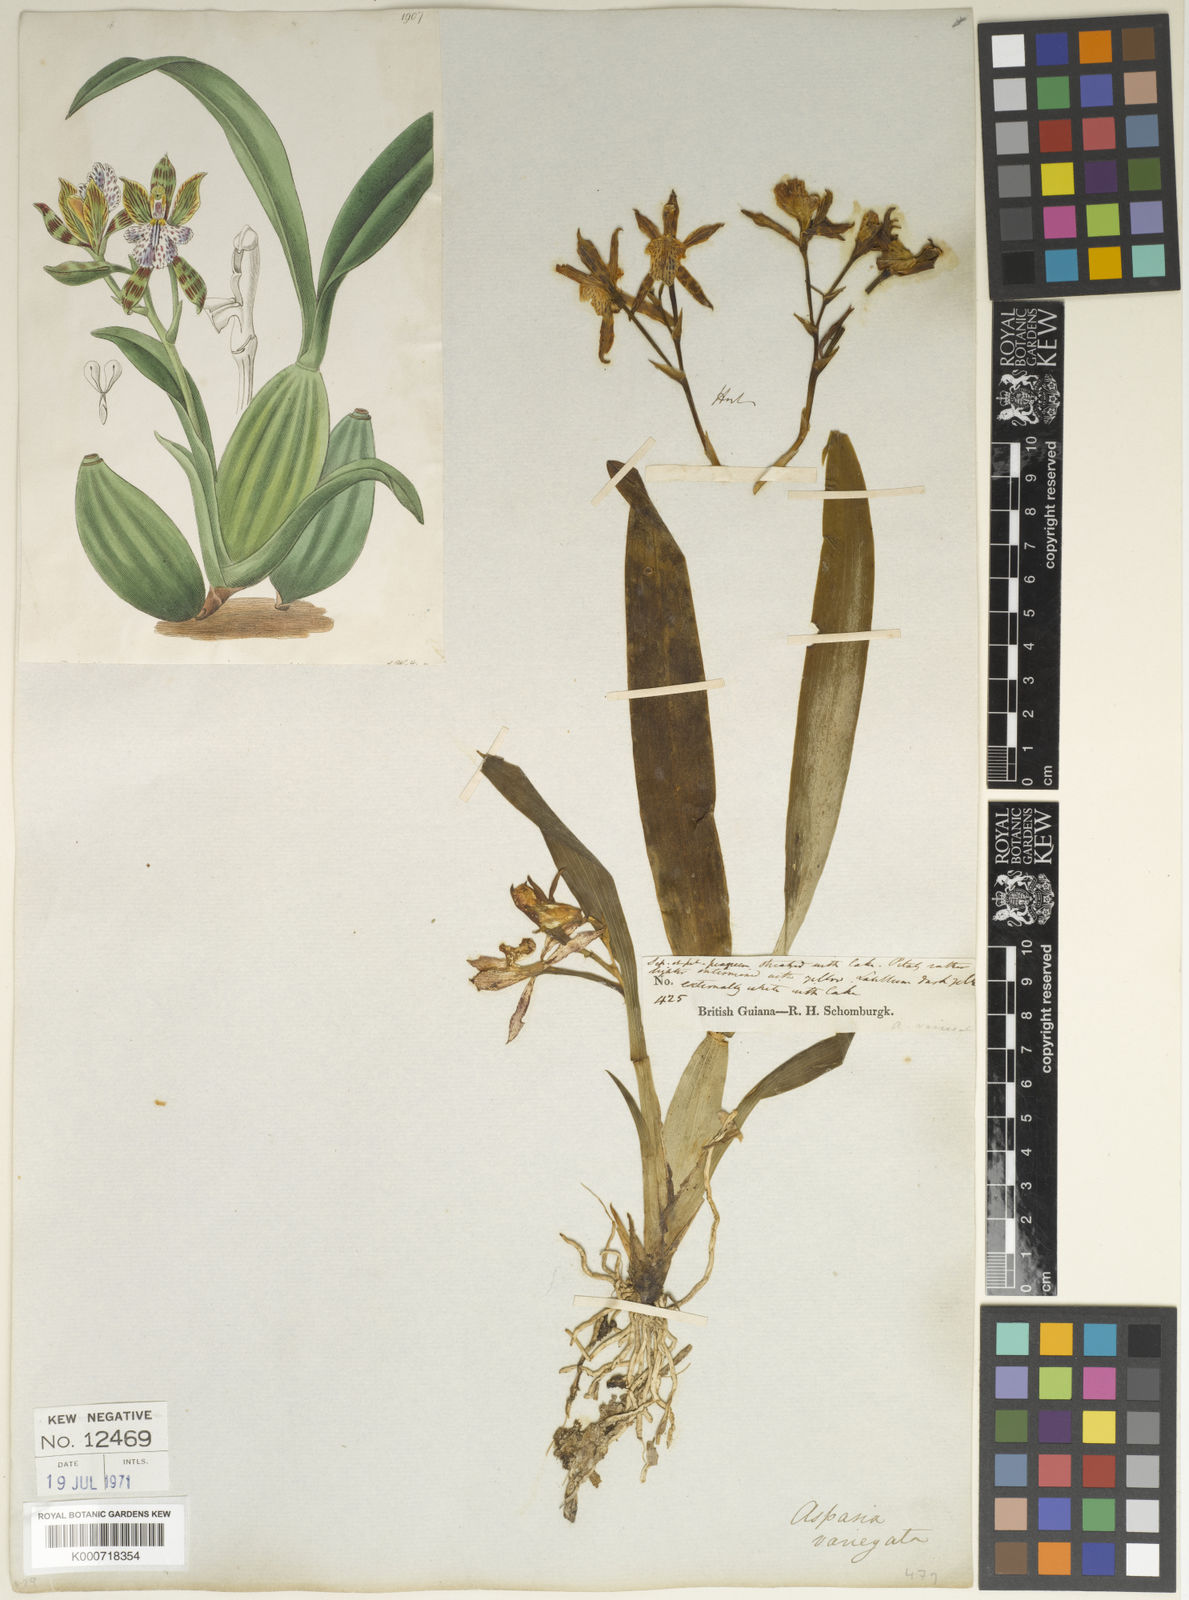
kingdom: Plantae
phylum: Tracheophyta
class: Liliopsida
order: Asparagales
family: Orchidaceae
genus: Aspasia
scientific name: Aspasia variegata
